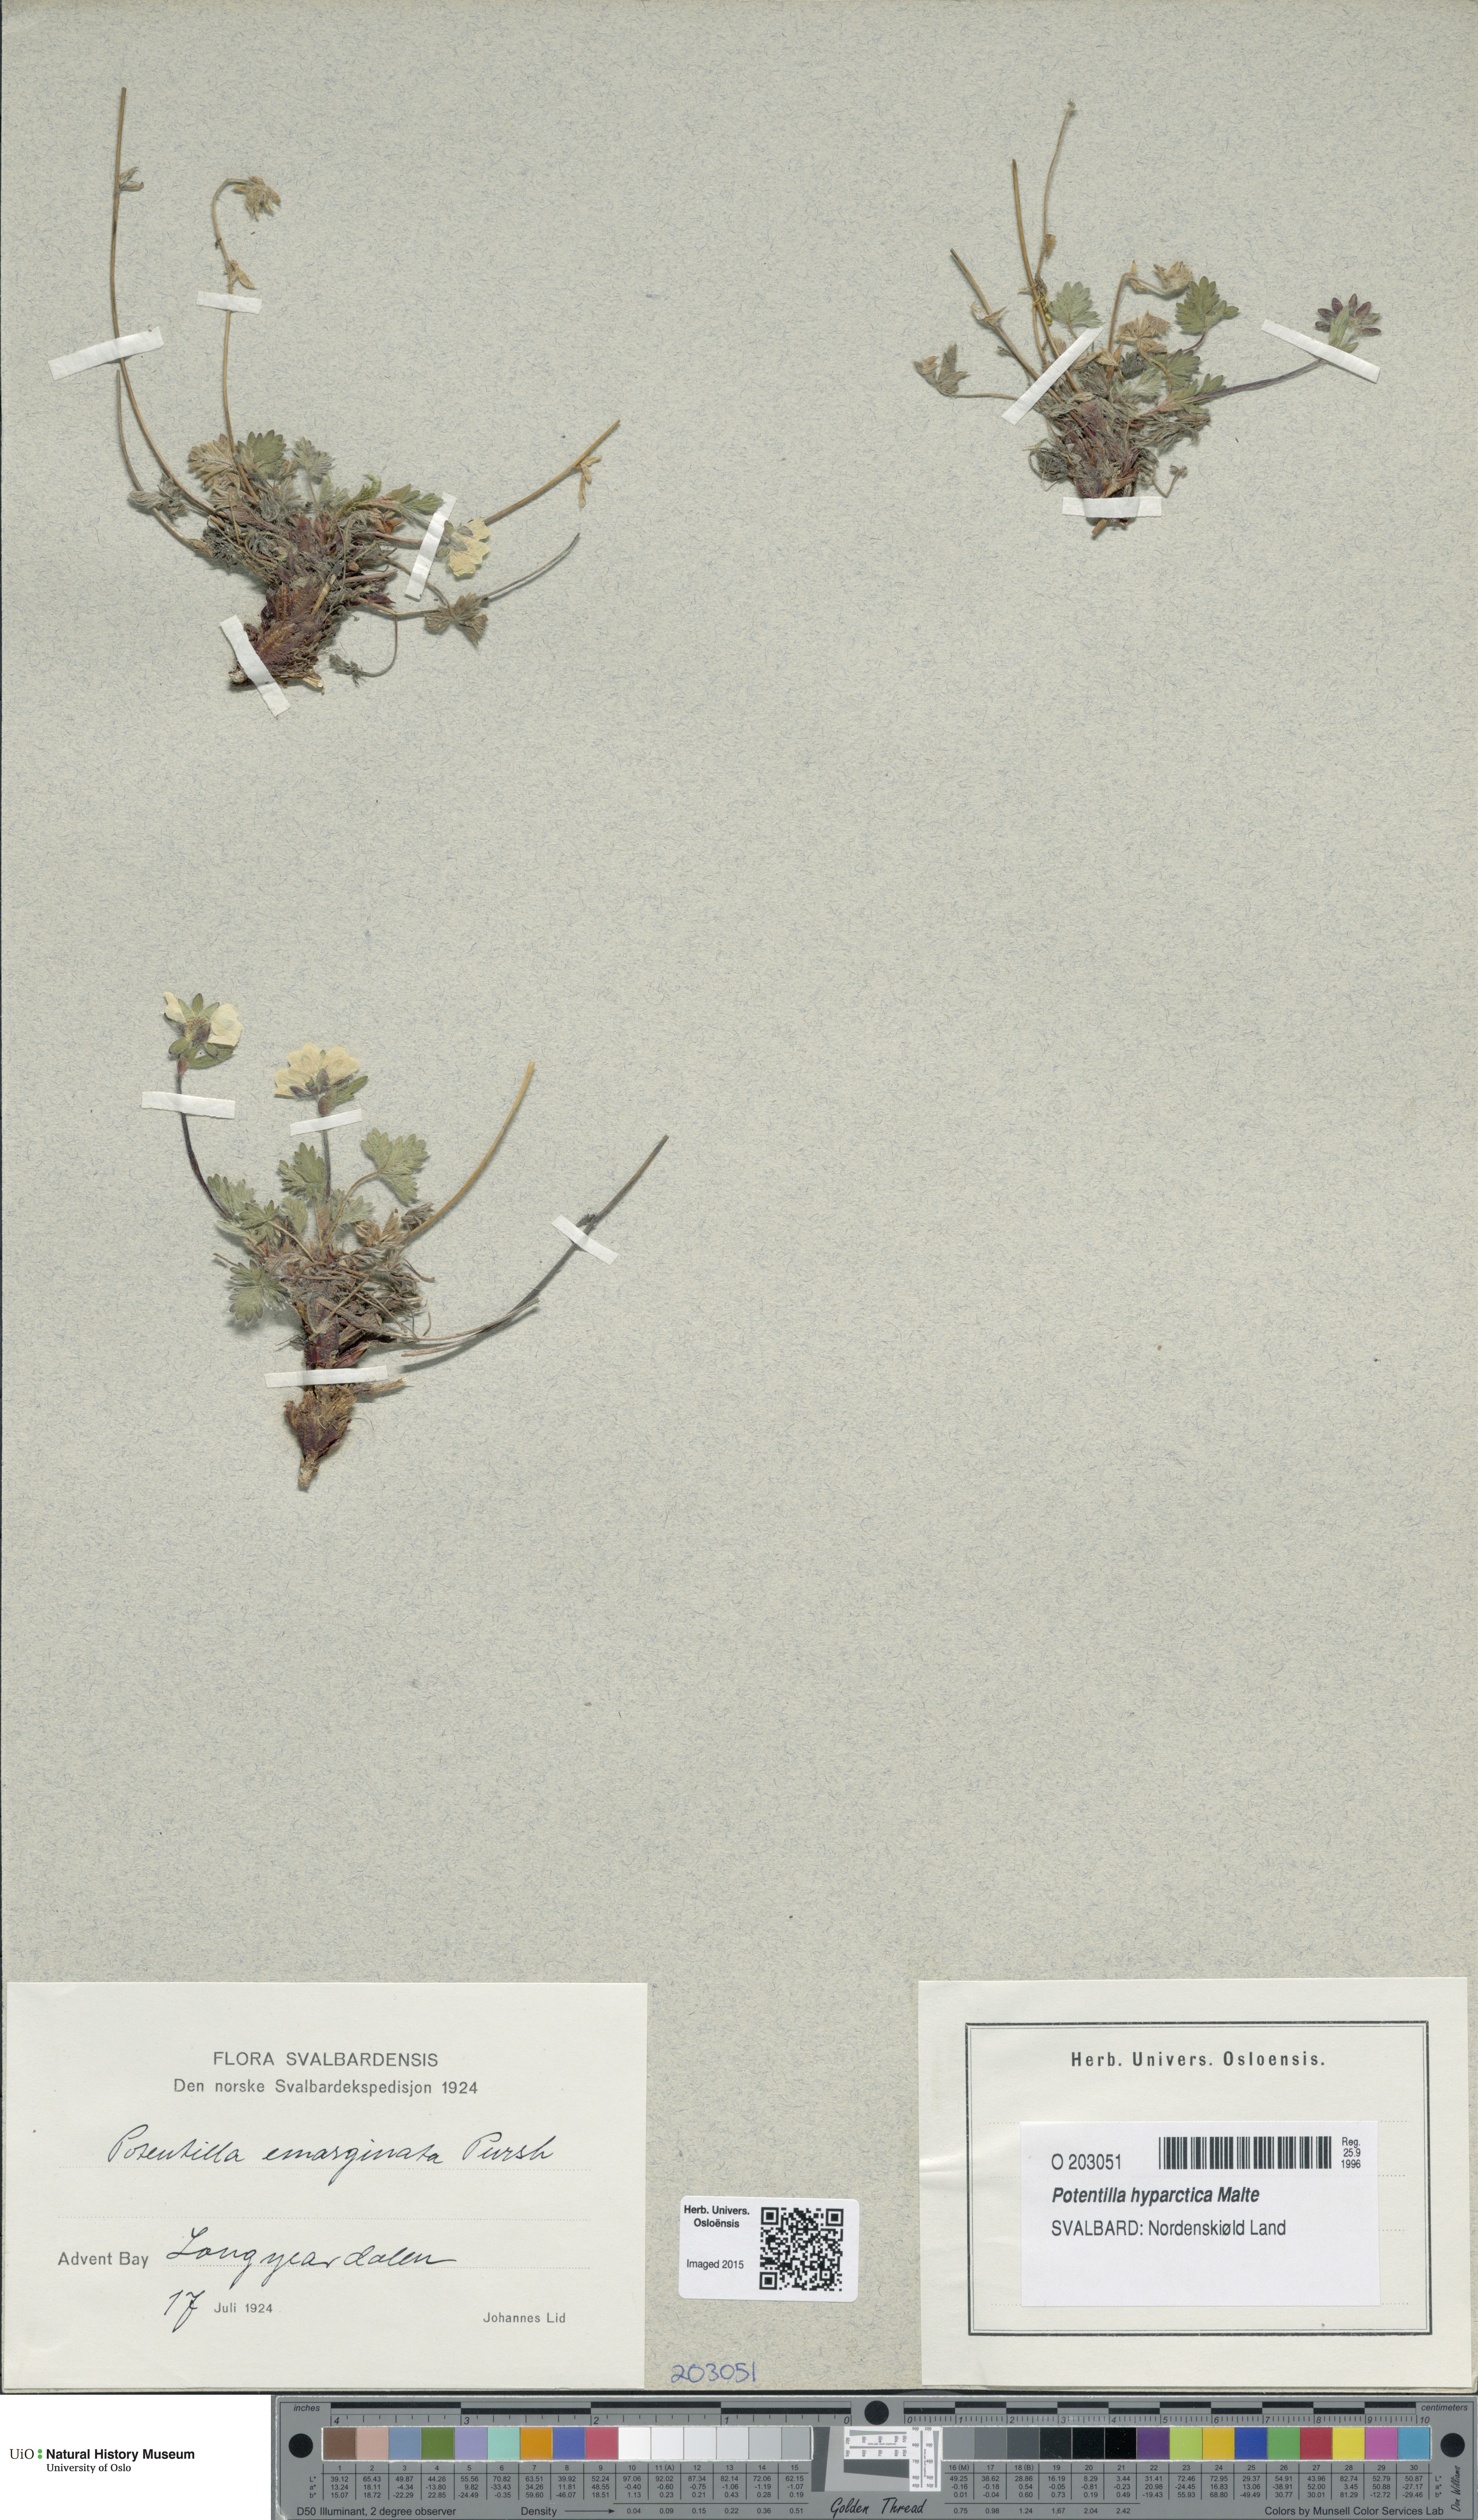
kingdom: Plantae
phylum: Tracheophyta
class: Magnoliopsida
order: Rosales
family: Rosaceae
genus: Potentilla
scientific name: Potentilla hyparctica
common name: Arctic cinquefoil
